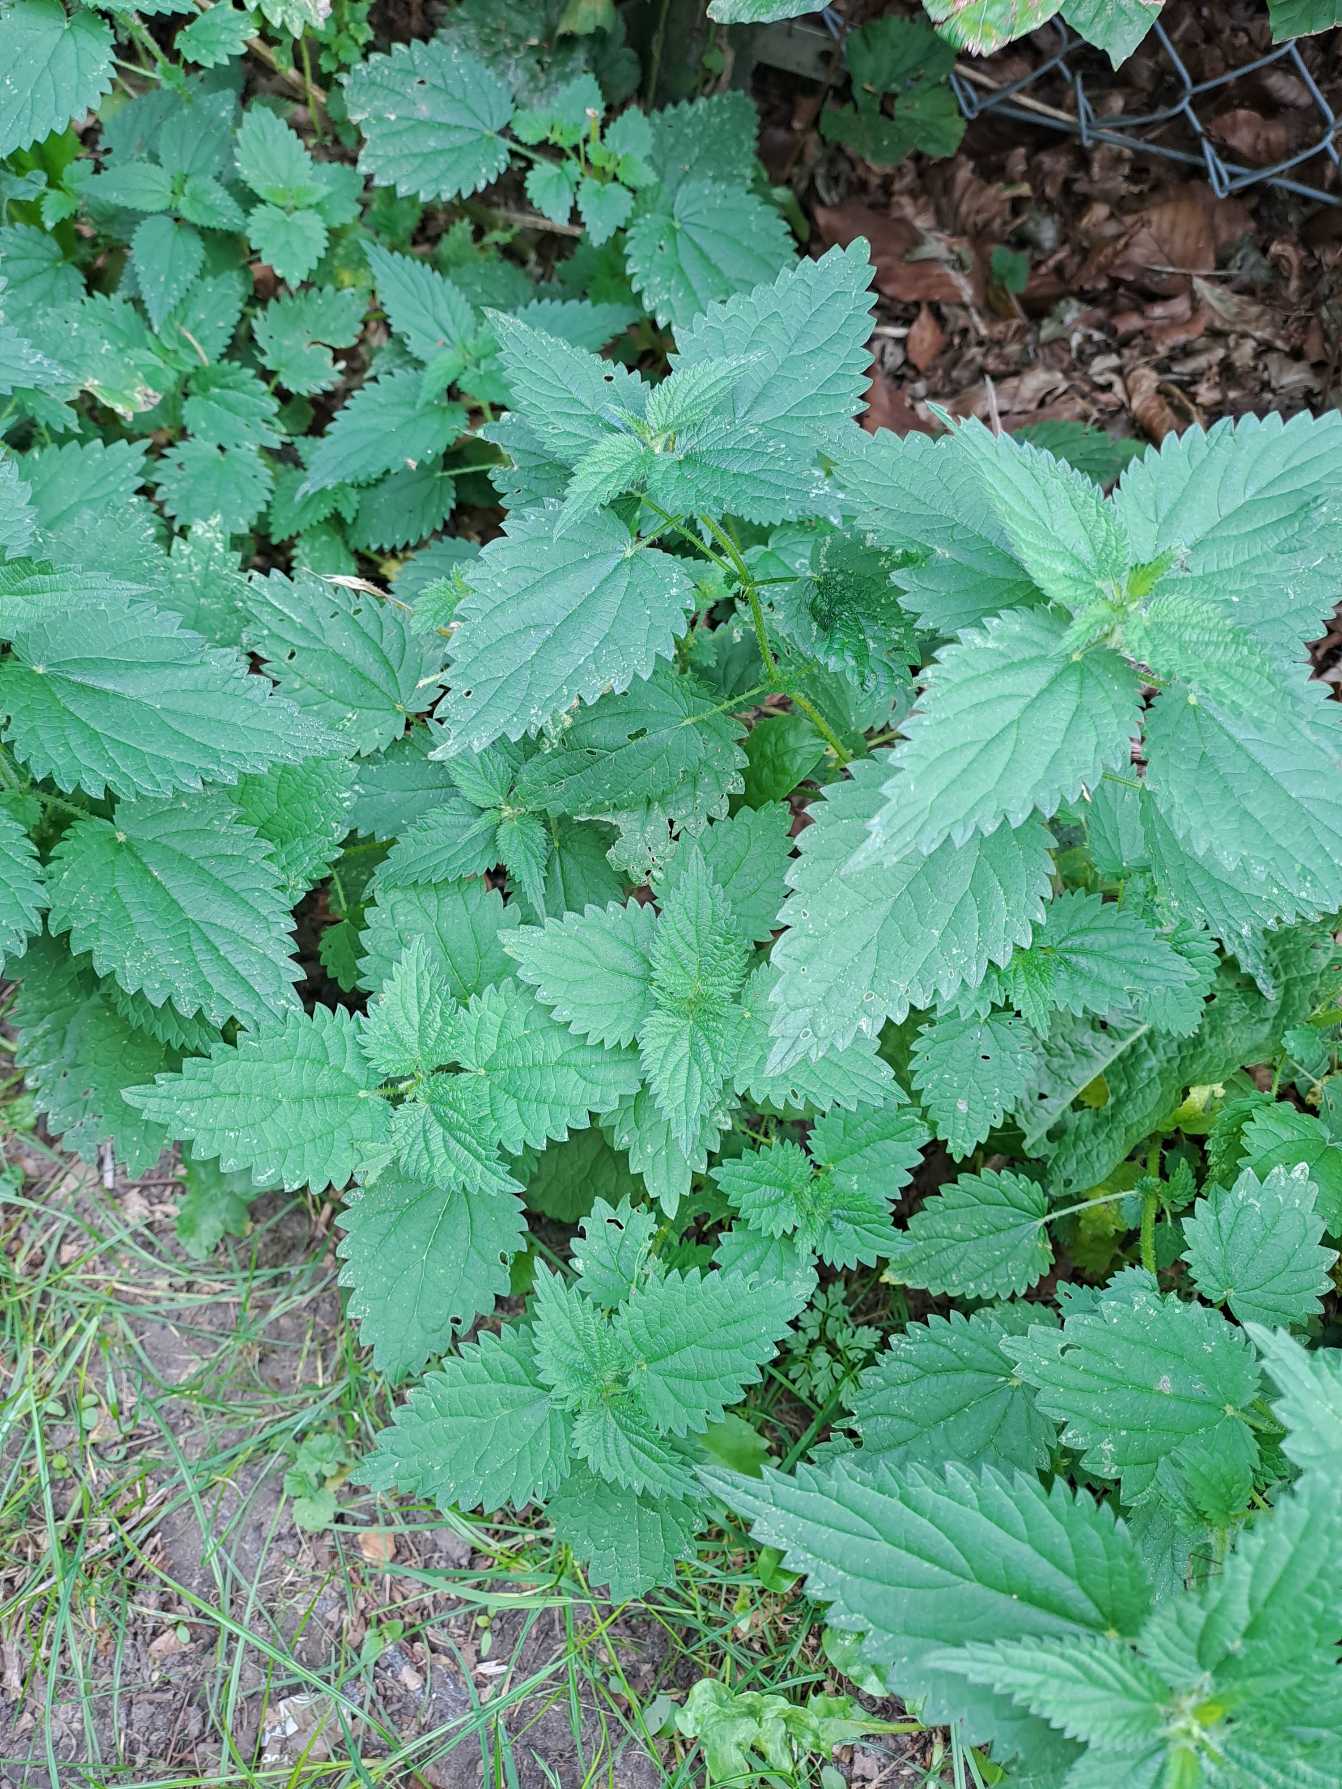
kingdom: Plantae
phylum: Tracheophyta
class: Magnoliopsida
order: Rosales
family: Urticaceae
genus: Urtica
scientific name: Urtica dioica
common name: Stor nælde
